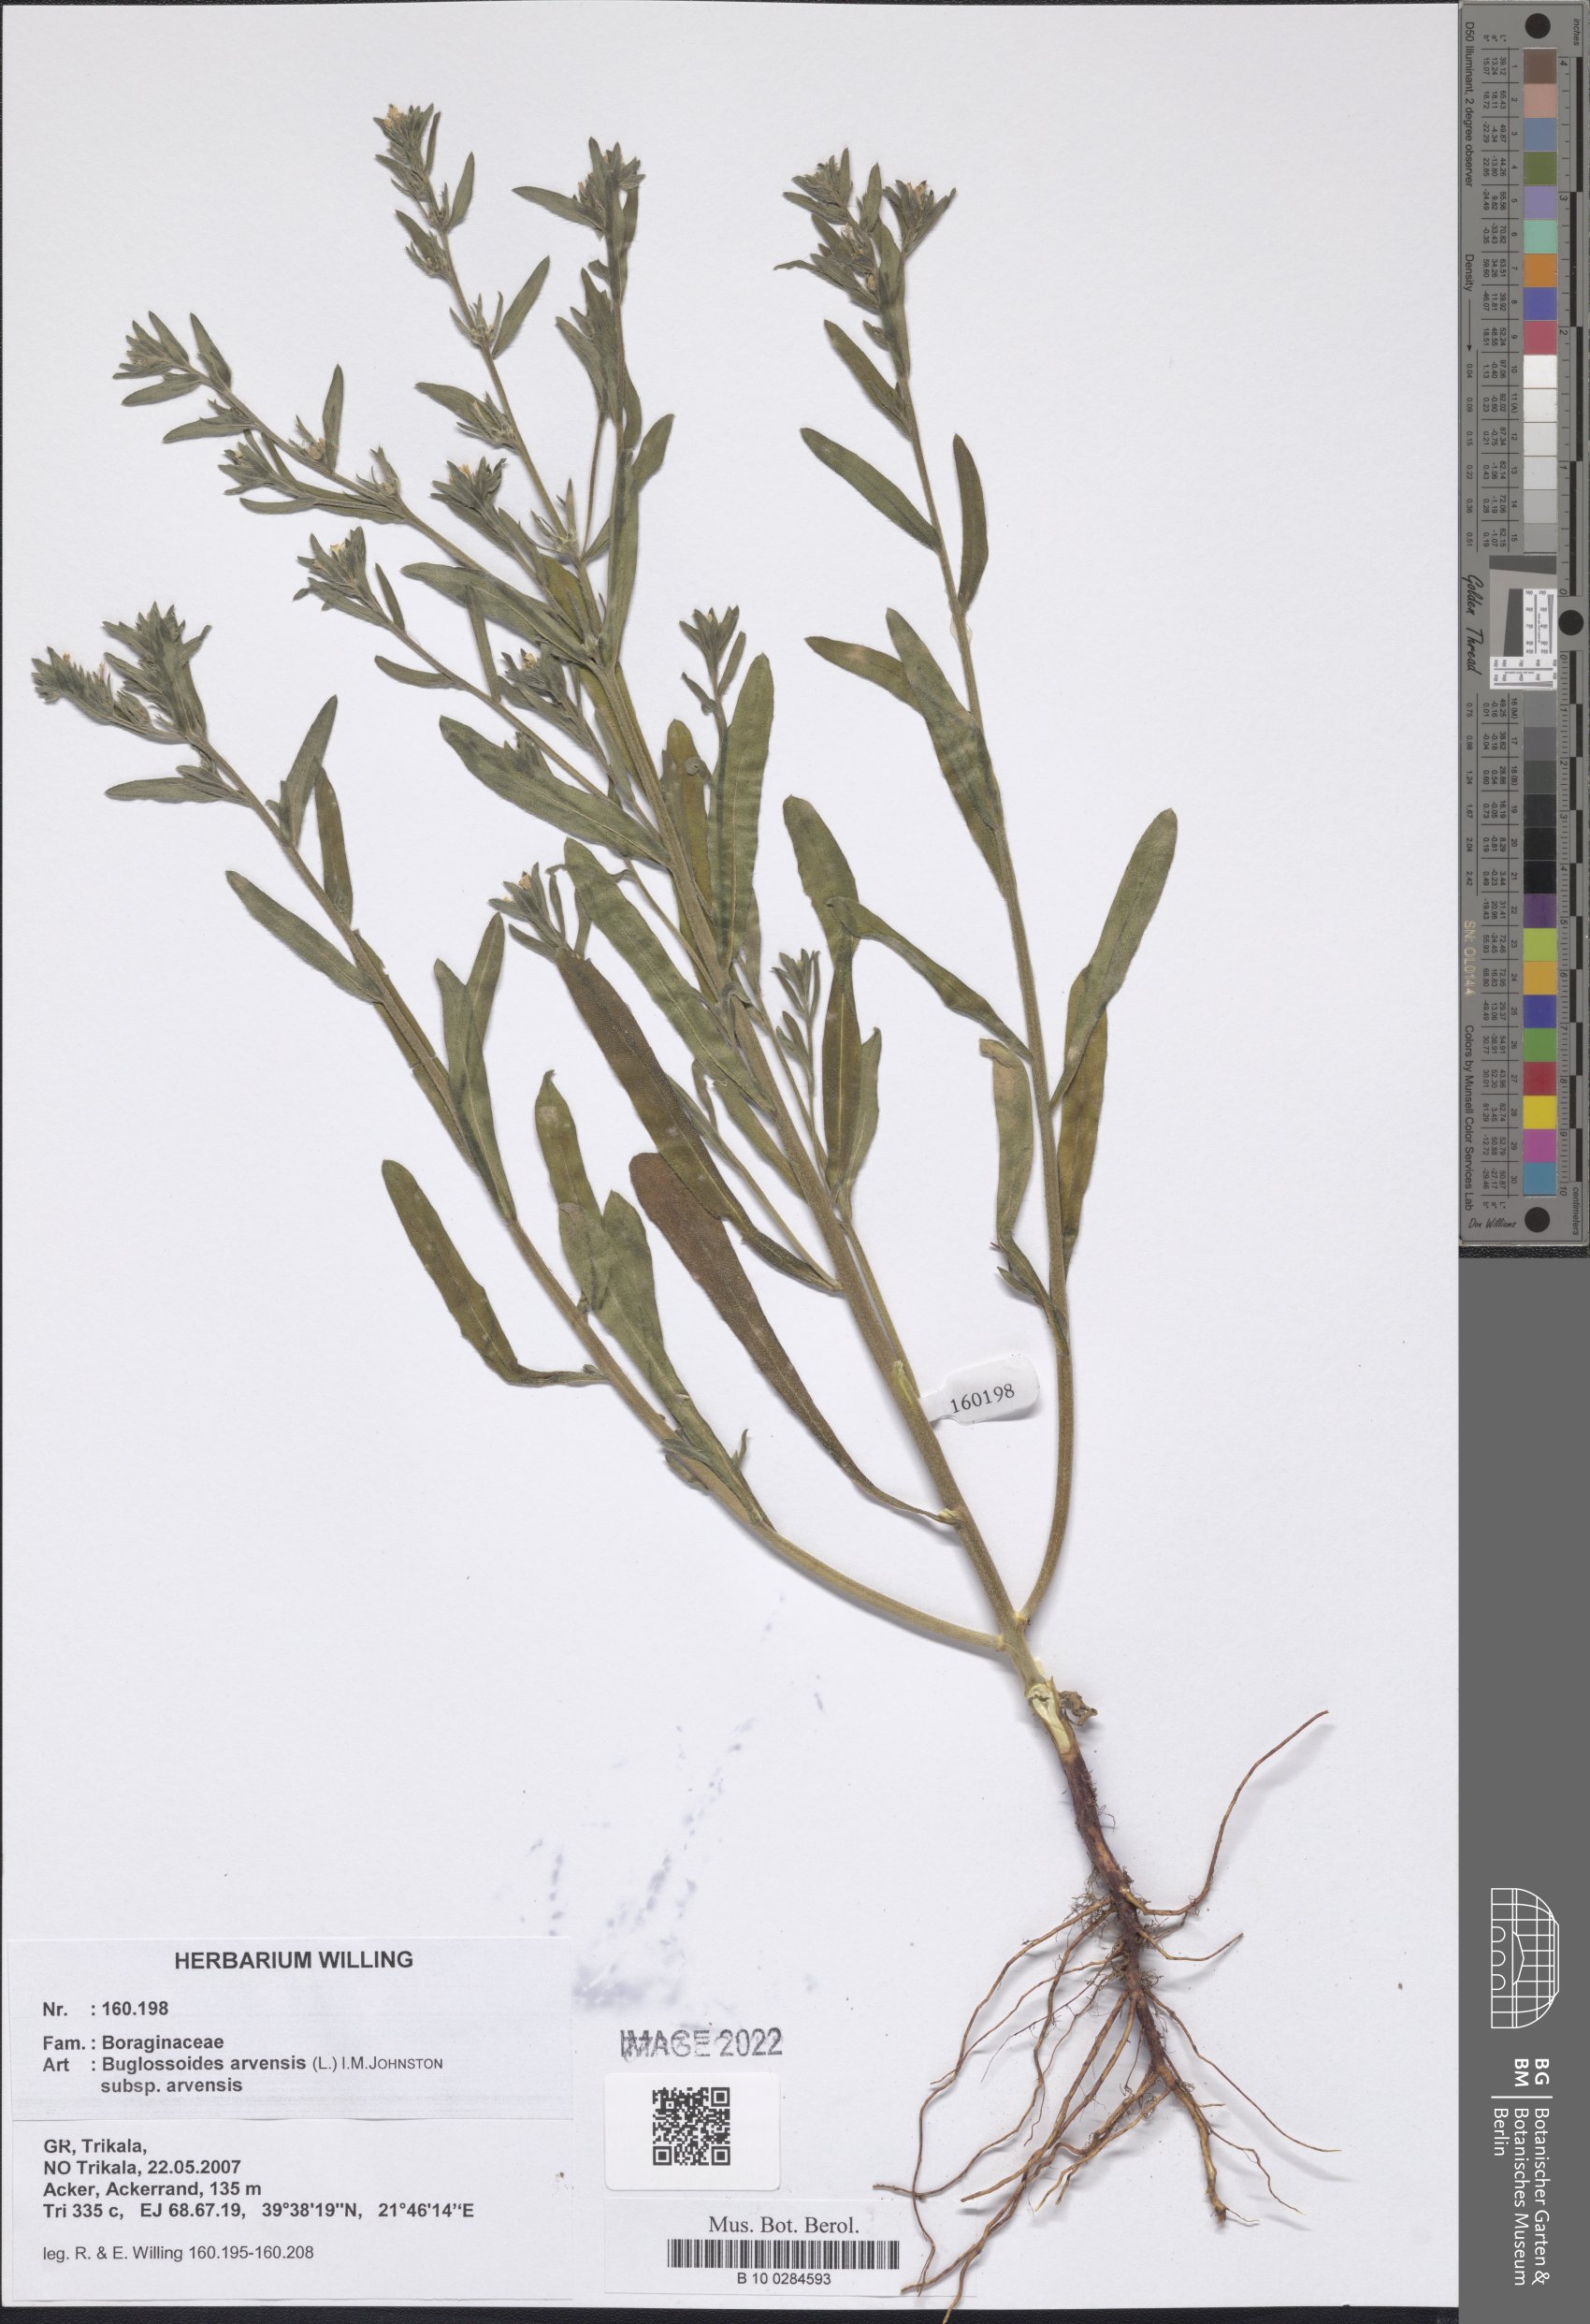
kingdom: Plantae
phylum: Tracheophyta
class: Magnoliopsida
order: Boraginales
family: Boraginaceae
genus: Buglossoides
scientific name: Buglossoides arvensis
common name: Corn gromwell
